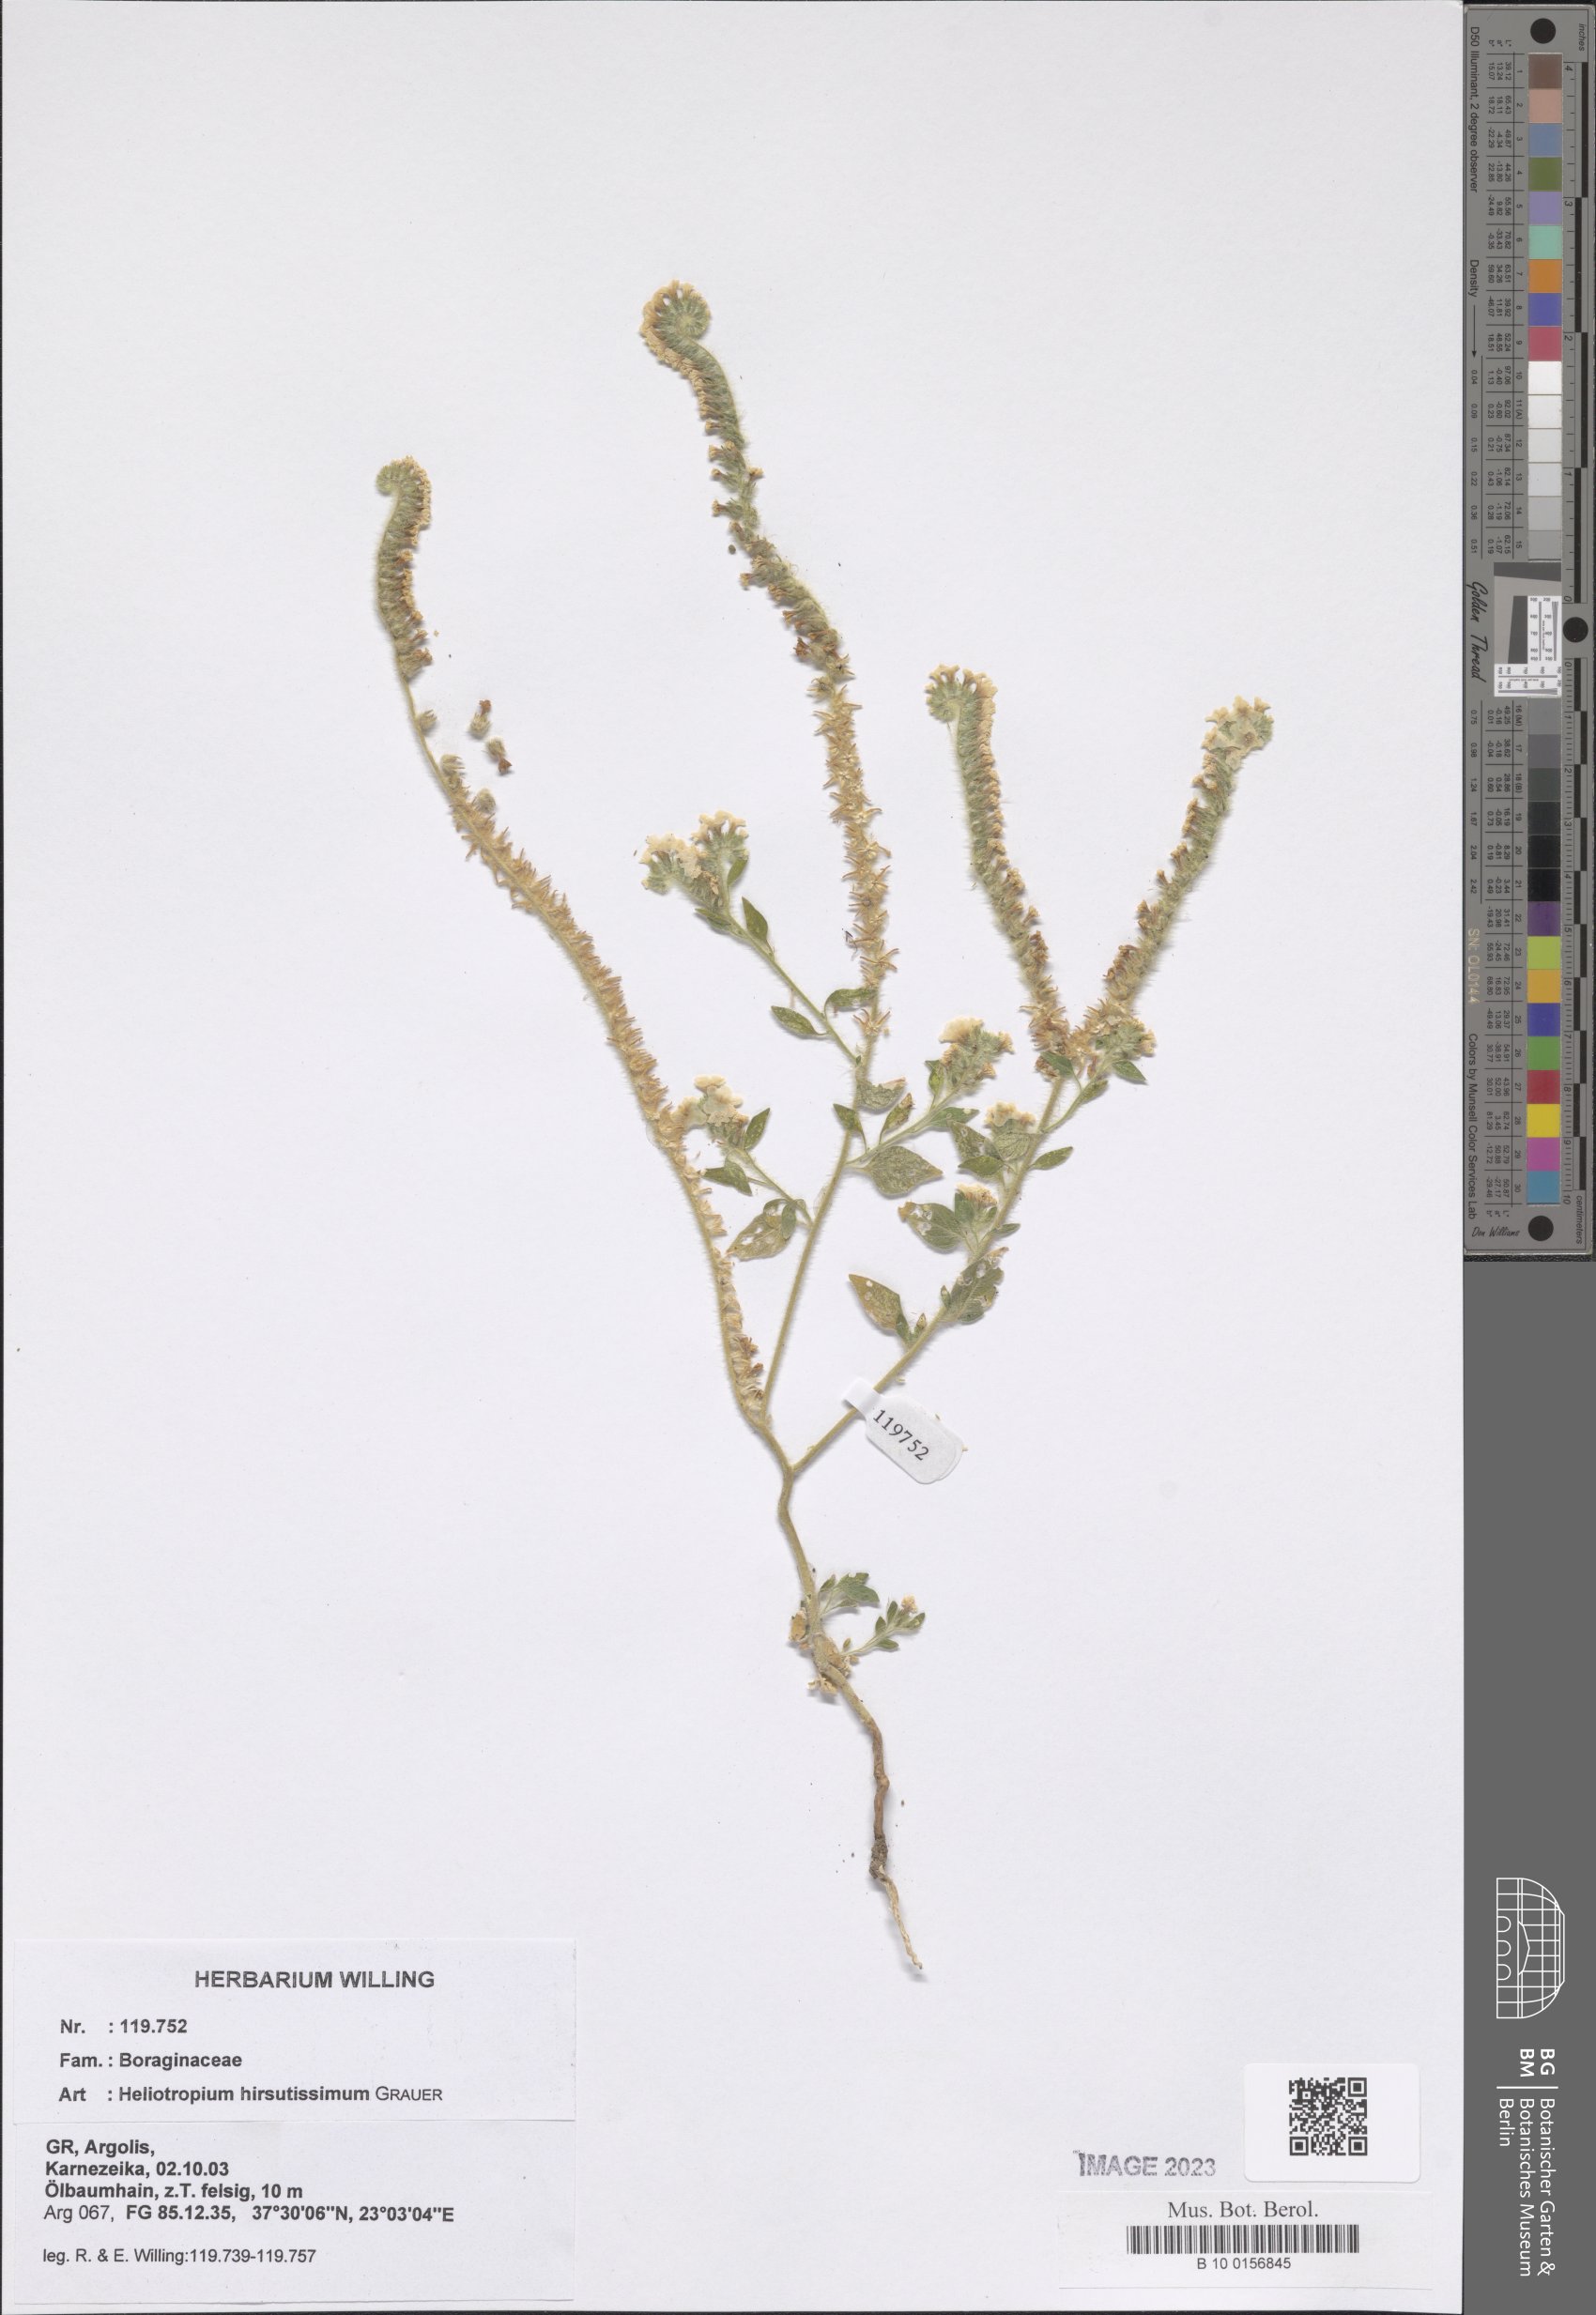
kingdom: Plantae
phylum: Tracheophyta
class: Magnoliopsida
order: Boraginales
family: Heliotropiaceae
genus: Heliotropium
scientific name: Heliotropium hirsutissimum
